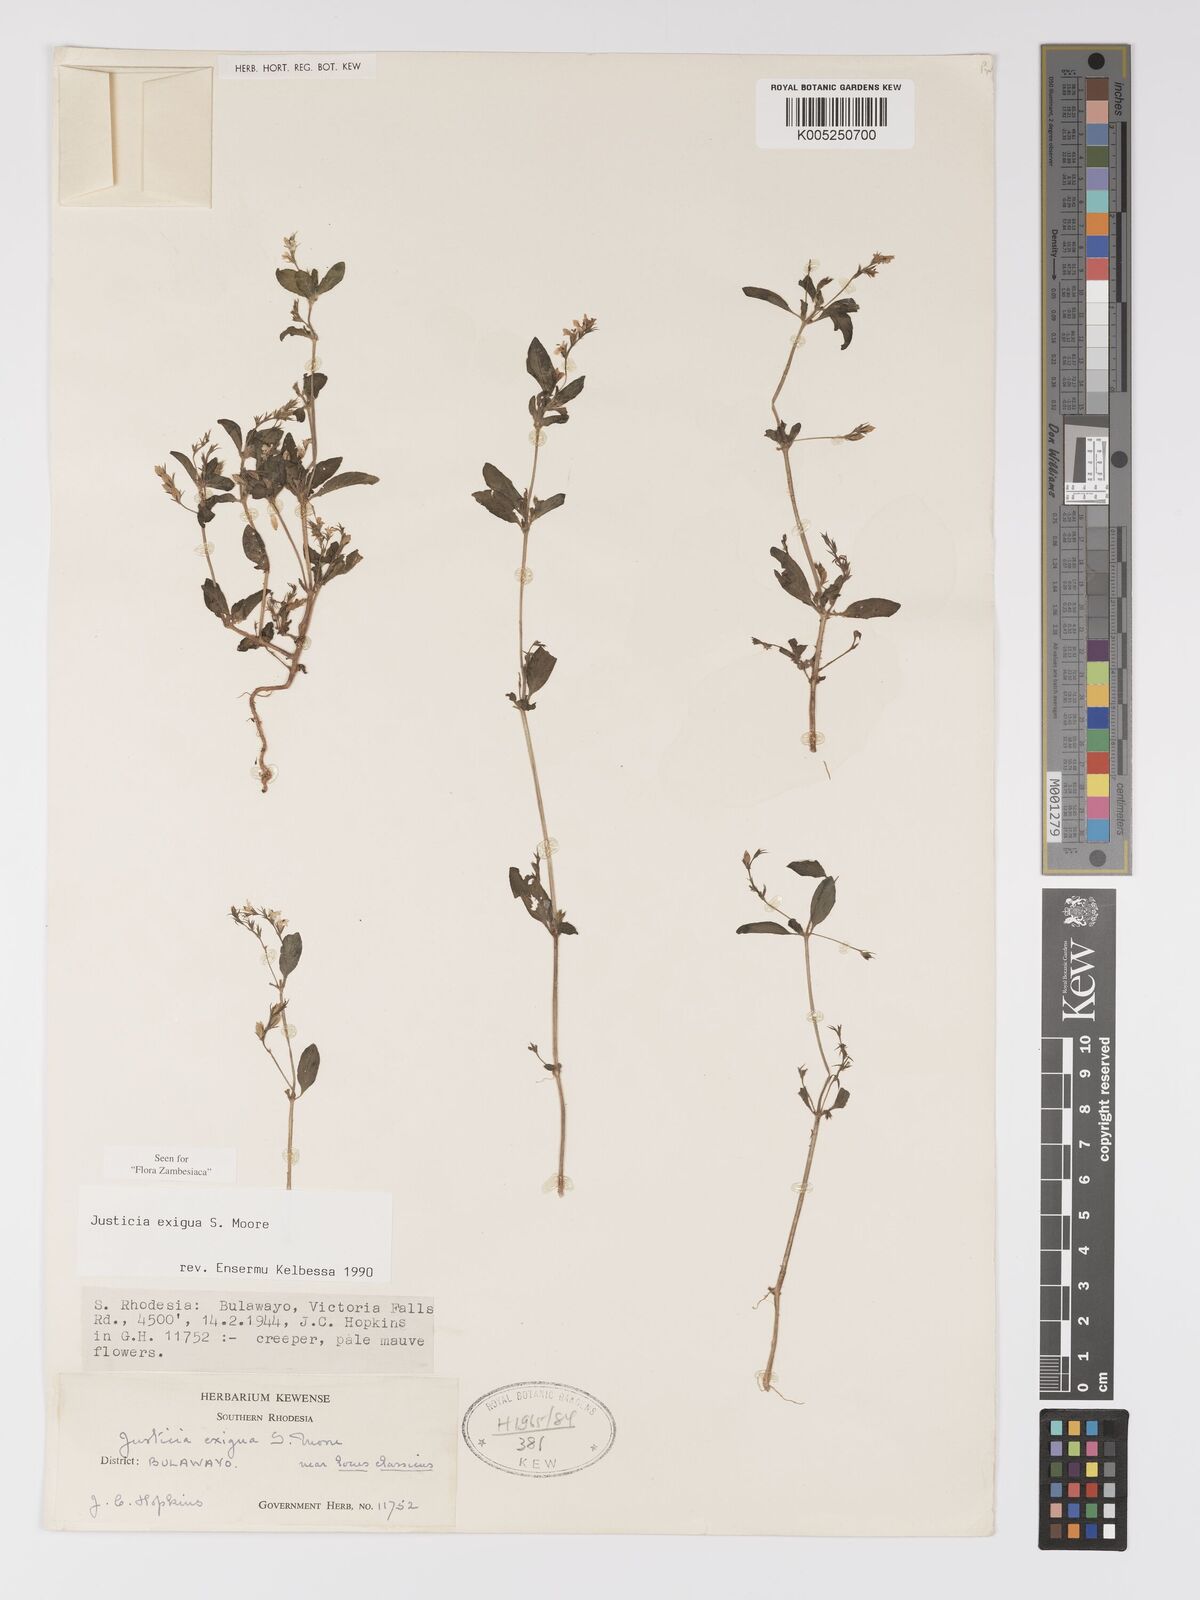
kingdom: Plantae
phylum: Tracheophyta
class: Magnoliopsida
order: Lamiales
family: Acanthaceae
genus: Justicia
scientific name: Justicia exigua
